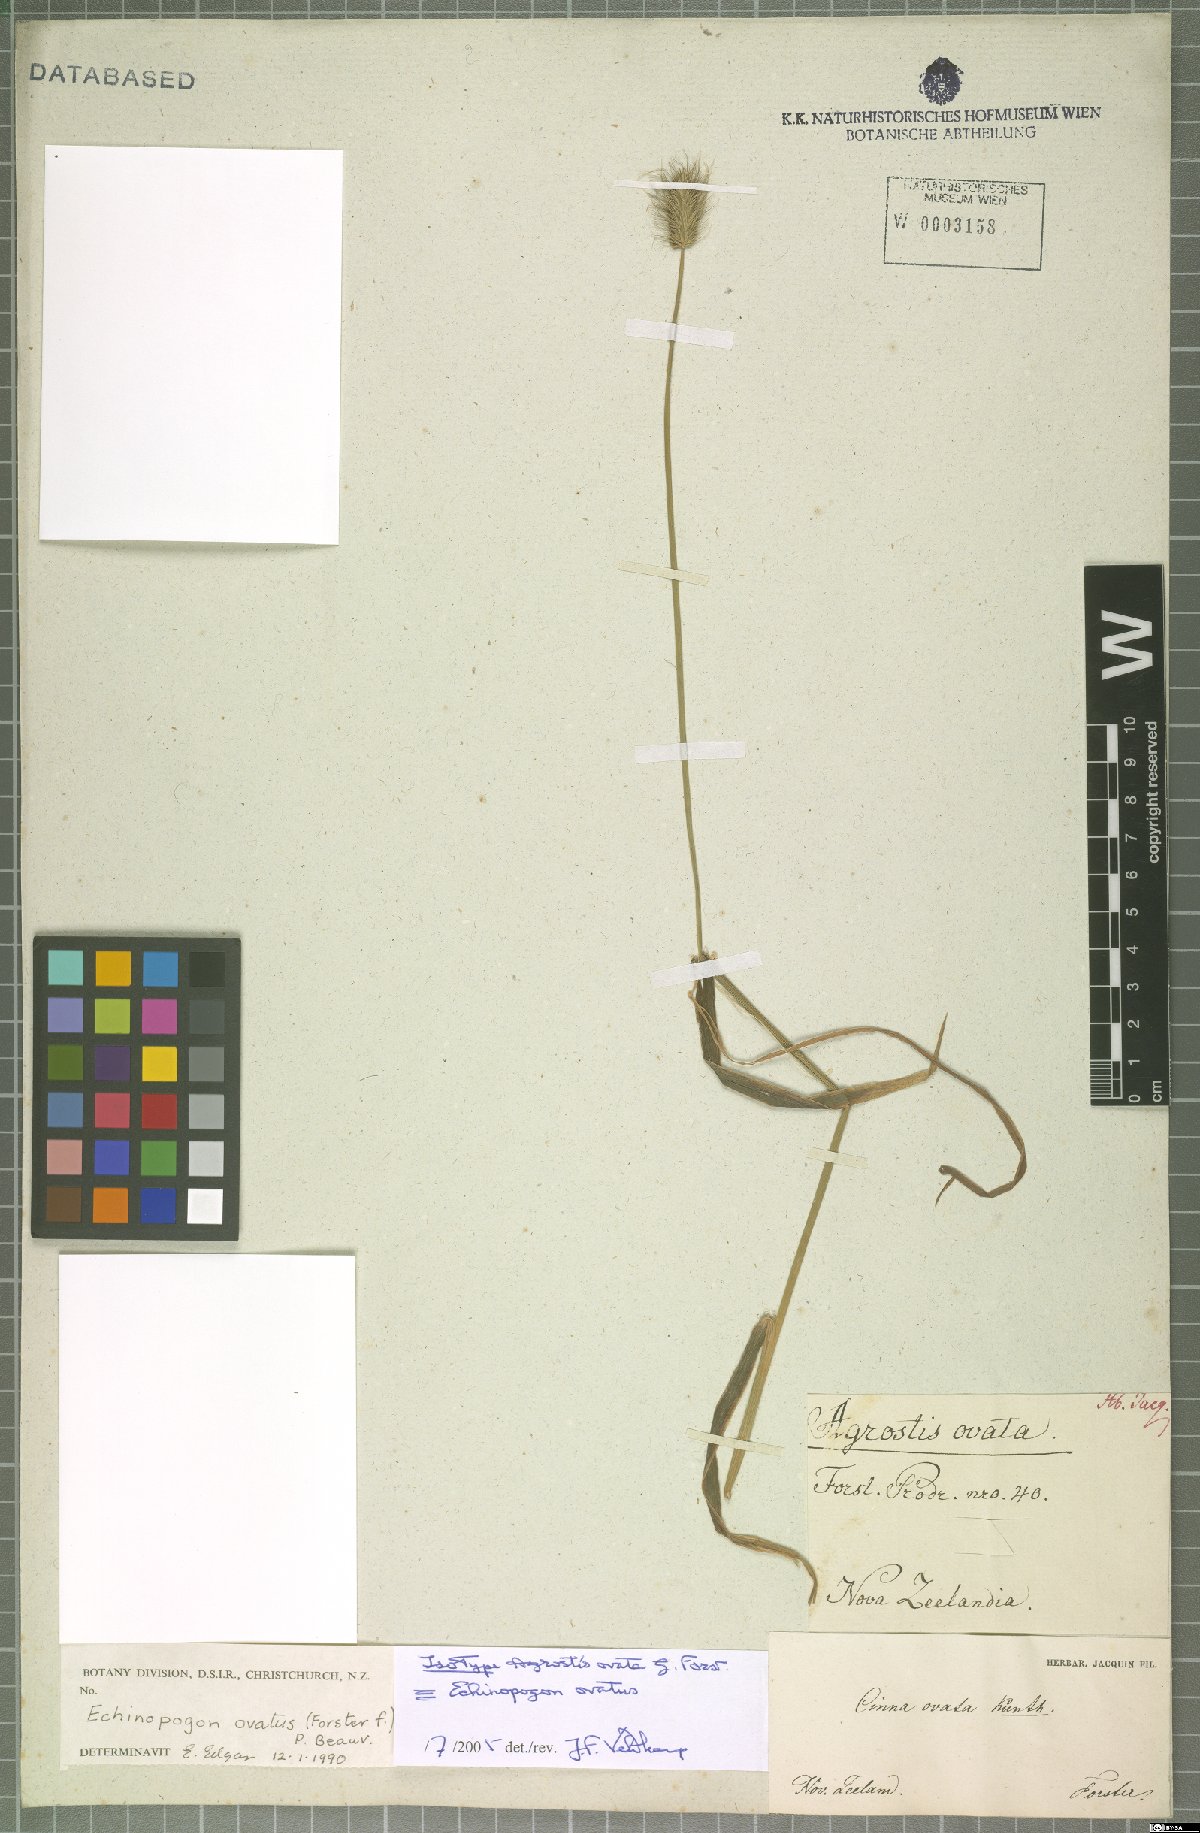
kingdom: Plantae
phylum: Tracheophyta
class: Liliopsida
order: Poales
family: Poaceae
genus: Echinopogon
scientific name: Echinopogon ovatus
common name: Hedgehog-grass
